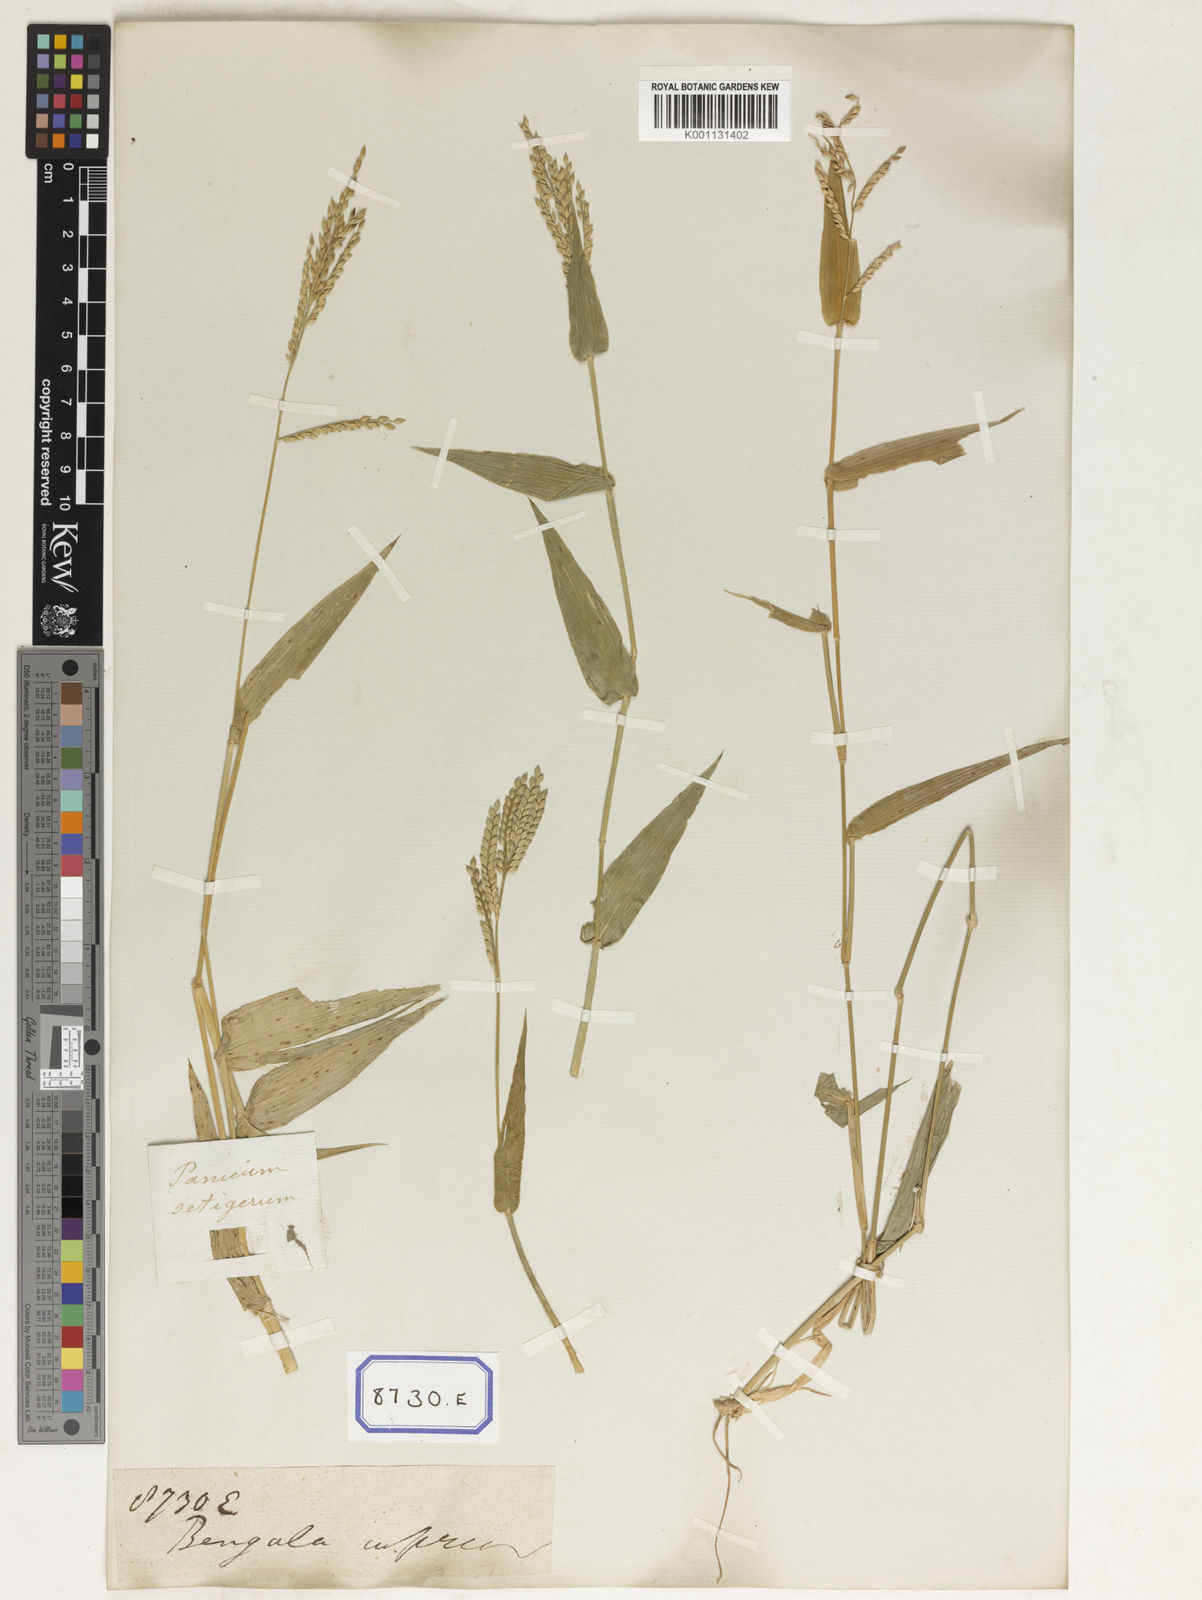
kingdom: Plantae
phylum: Tracheophyta
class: Liliopsida
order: Poales
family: Poaceae
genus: Panicum
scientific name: Panicum
